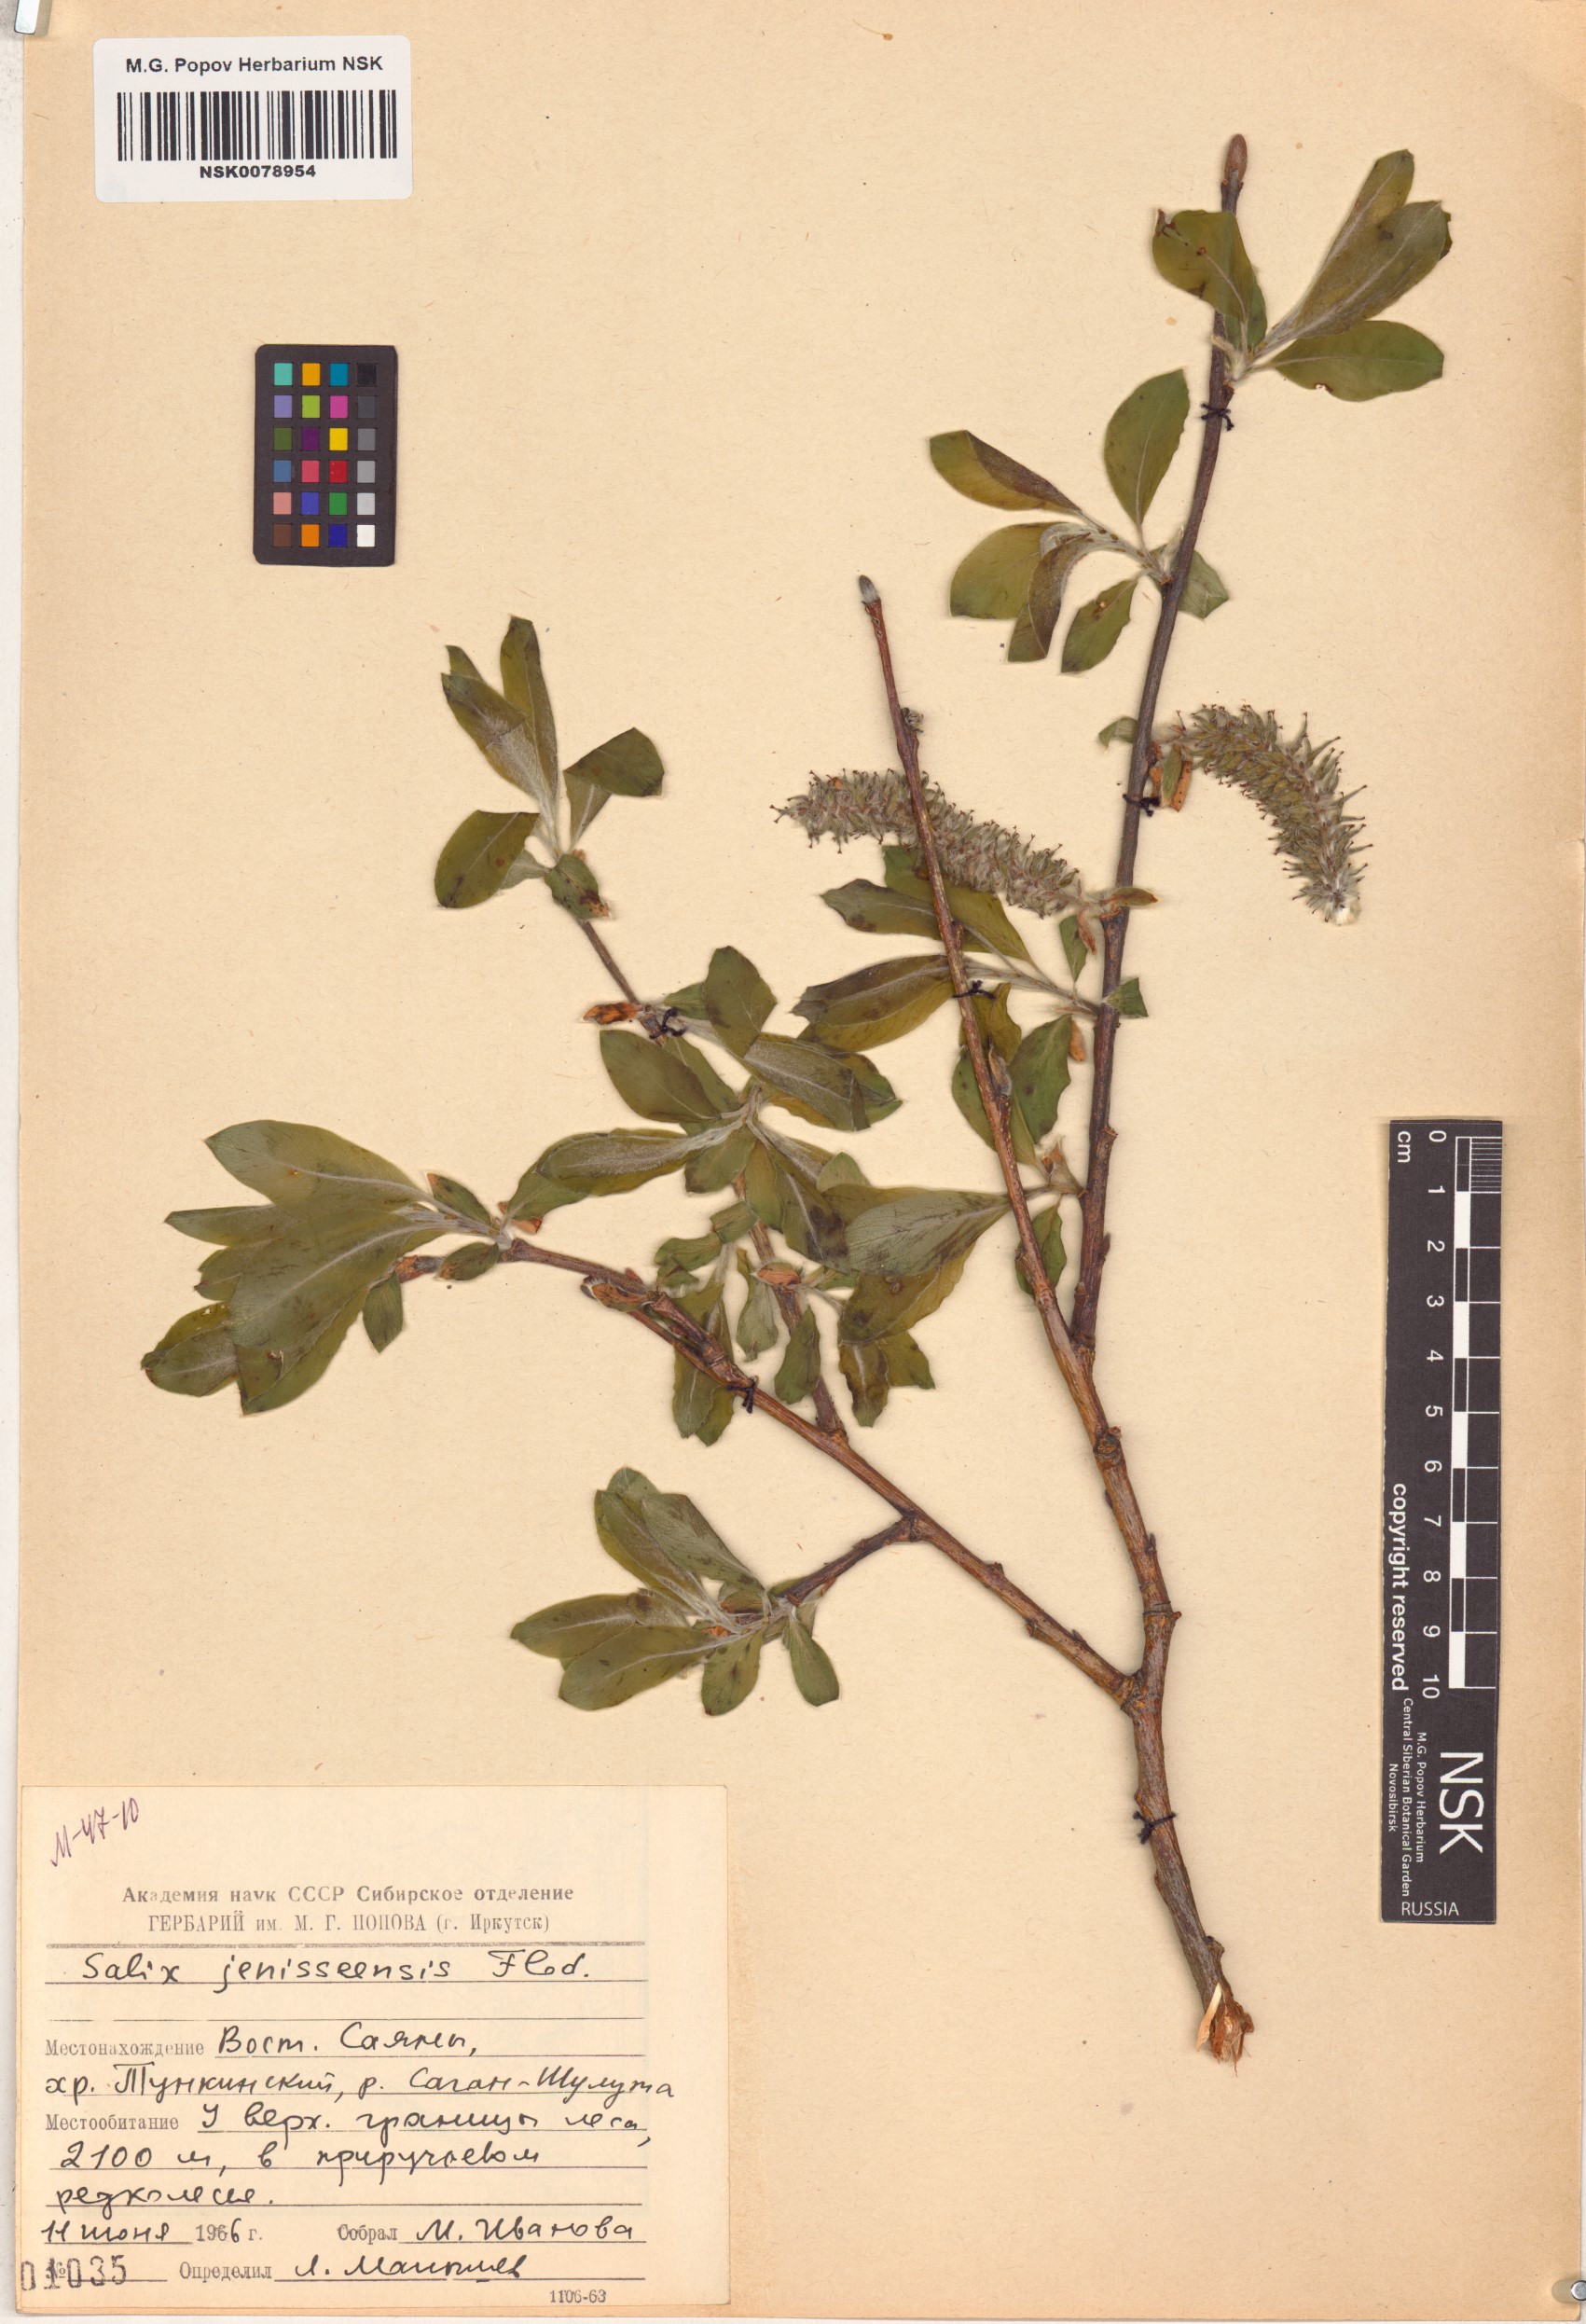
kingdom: Plantae
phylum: Tracheophyta
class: Magnoliopsida
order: Malpighiales
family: Salicaceae
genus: Salix
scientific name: Salix jenisseensis
